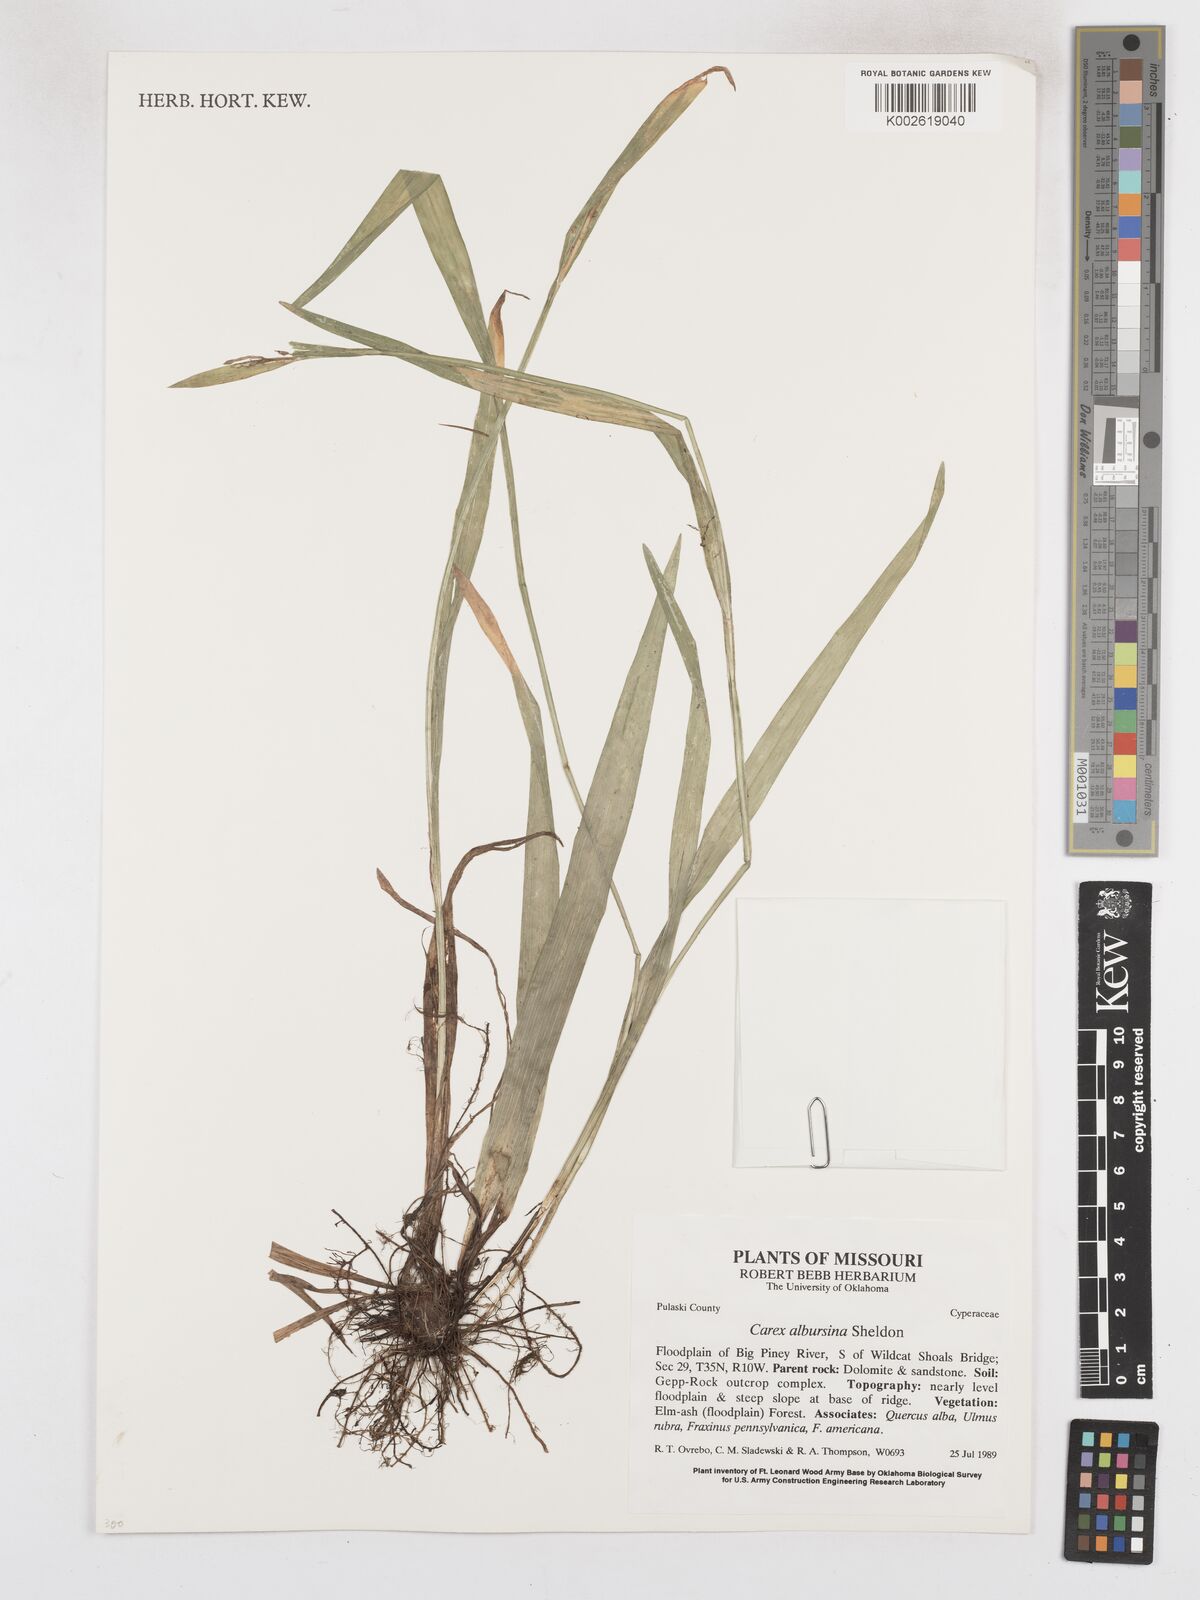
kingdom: Plantae
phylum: Tracheophyta
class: Liliopsida
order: Poales
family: Cyperaceae
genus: Carex
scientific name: Carex albursina
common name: Blunt-scale wood sedge
